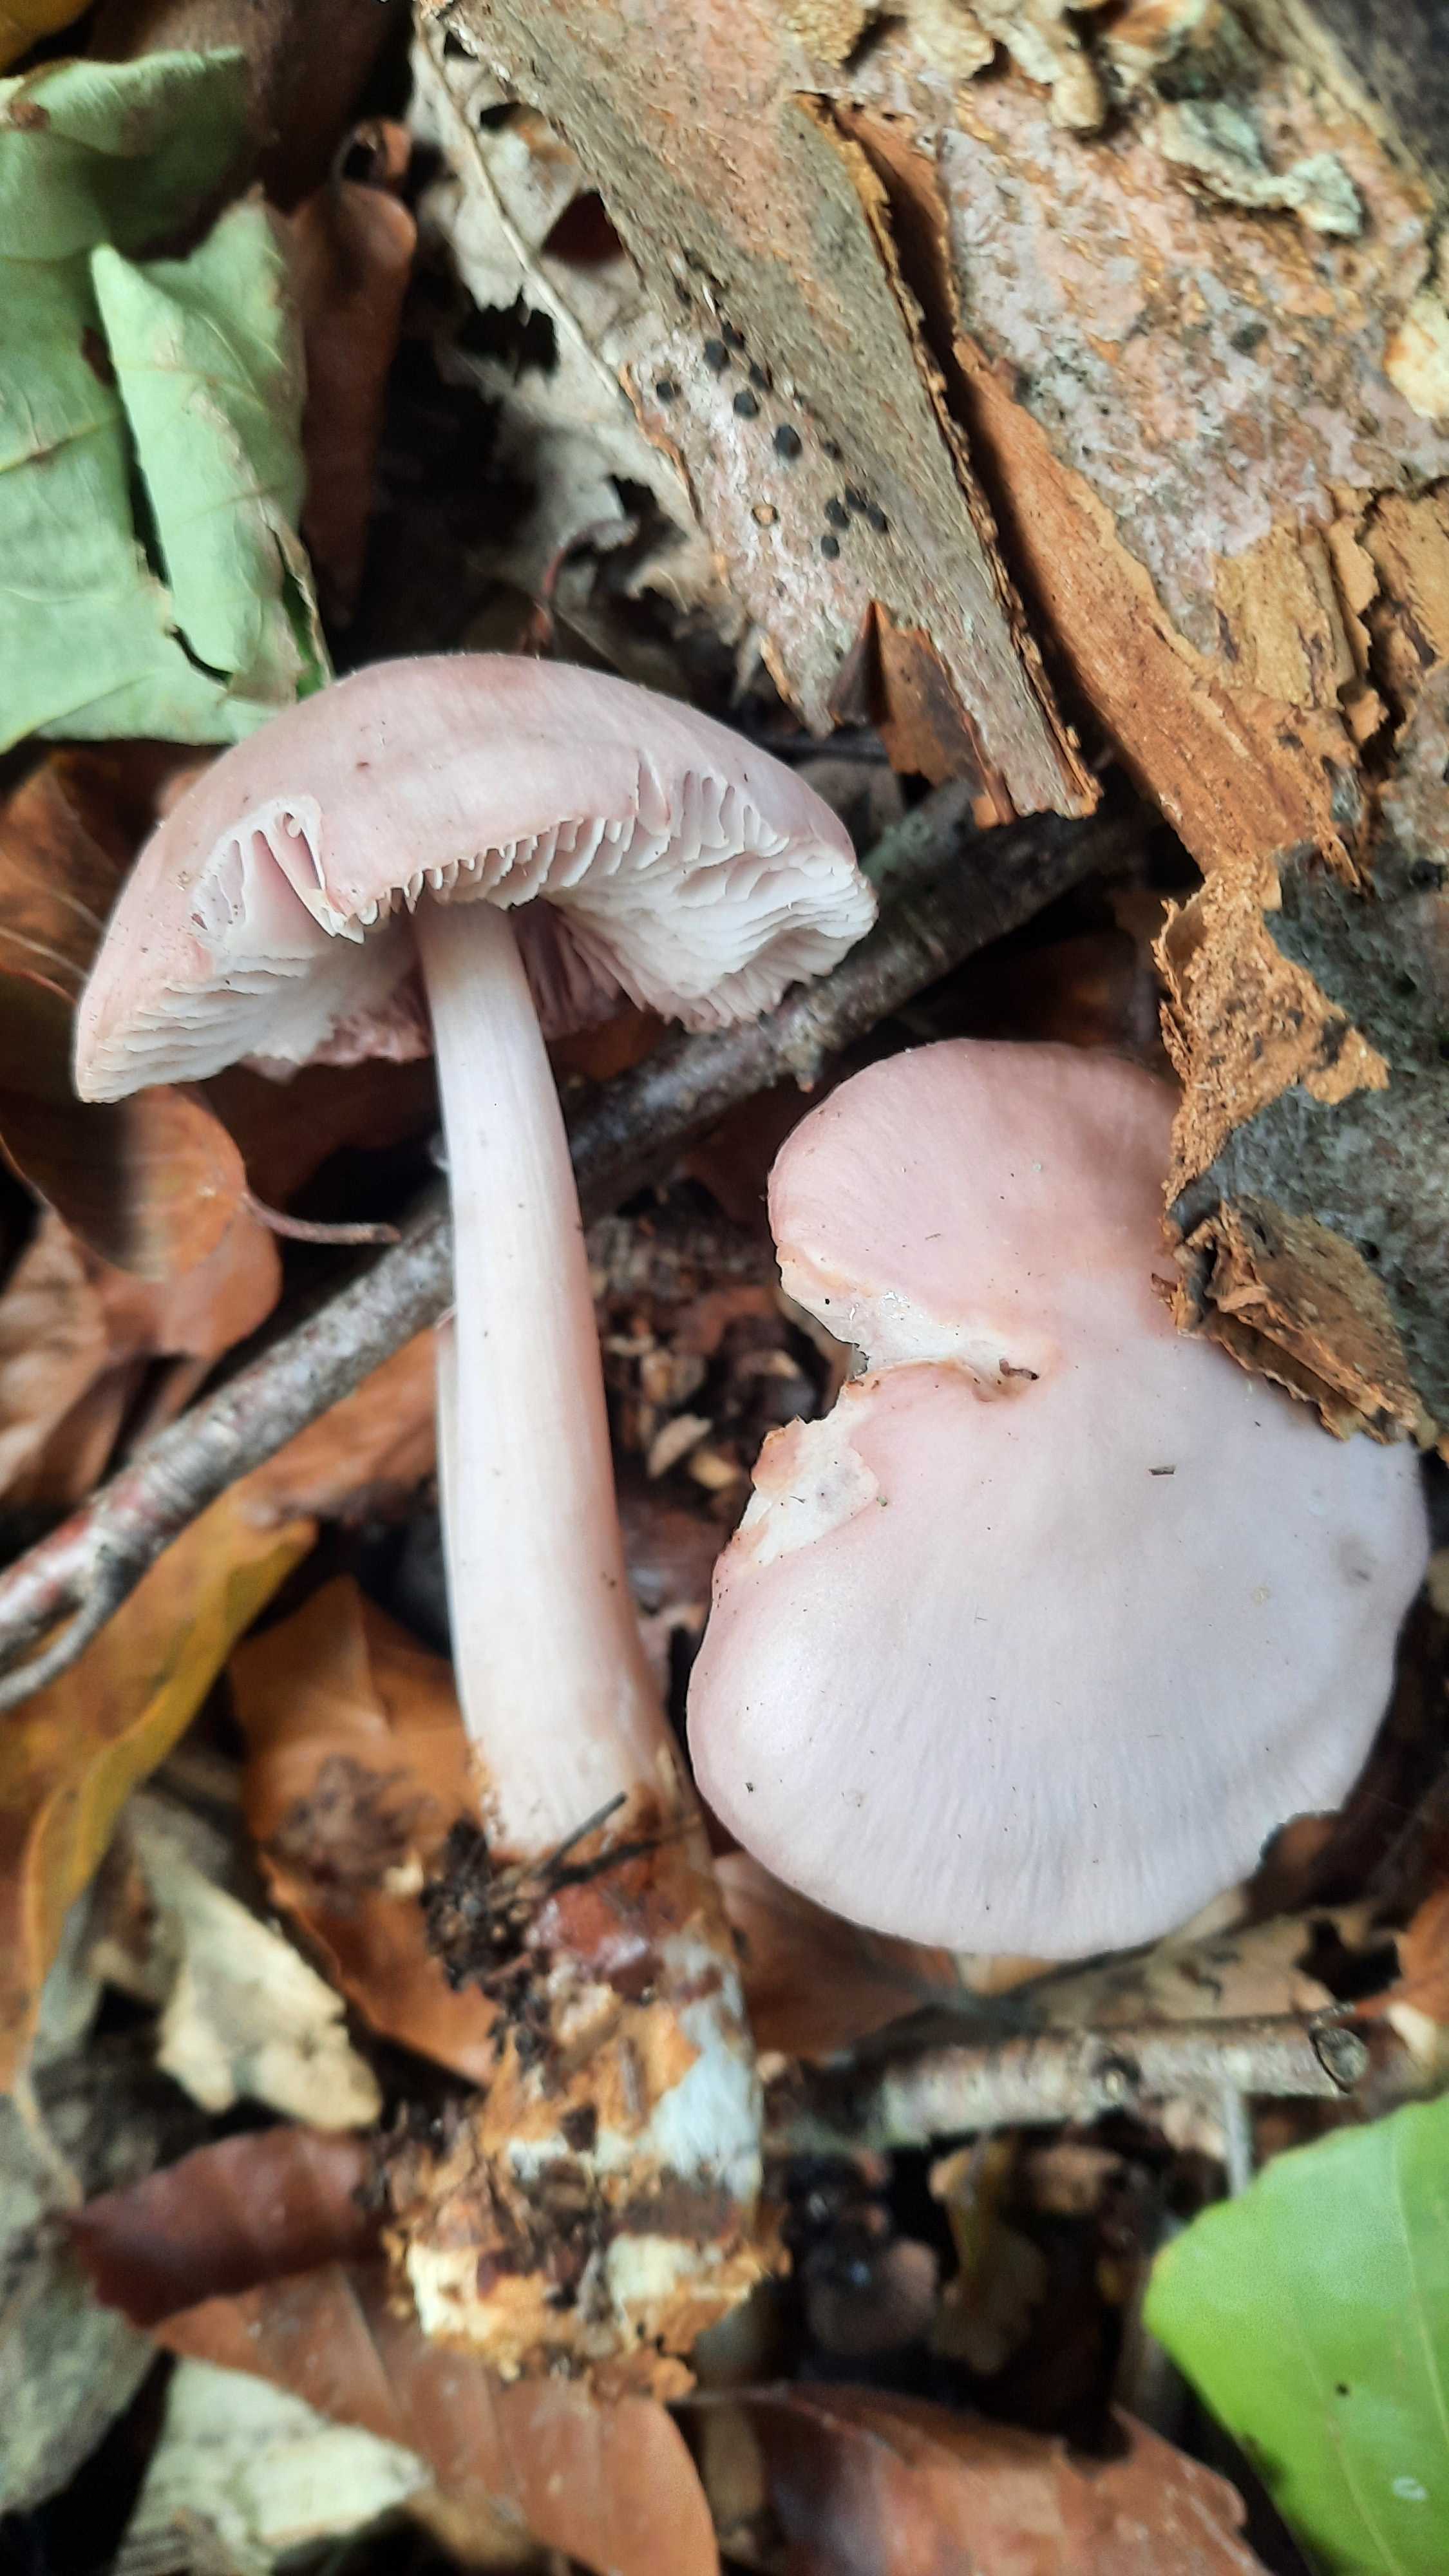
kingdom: Fungi
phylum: Basidiomycota
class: Agaricomycetes
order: Agaricales
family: Mycenaceae
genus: Mycena
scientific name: Mycena rosea
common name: rosa huesvamp
